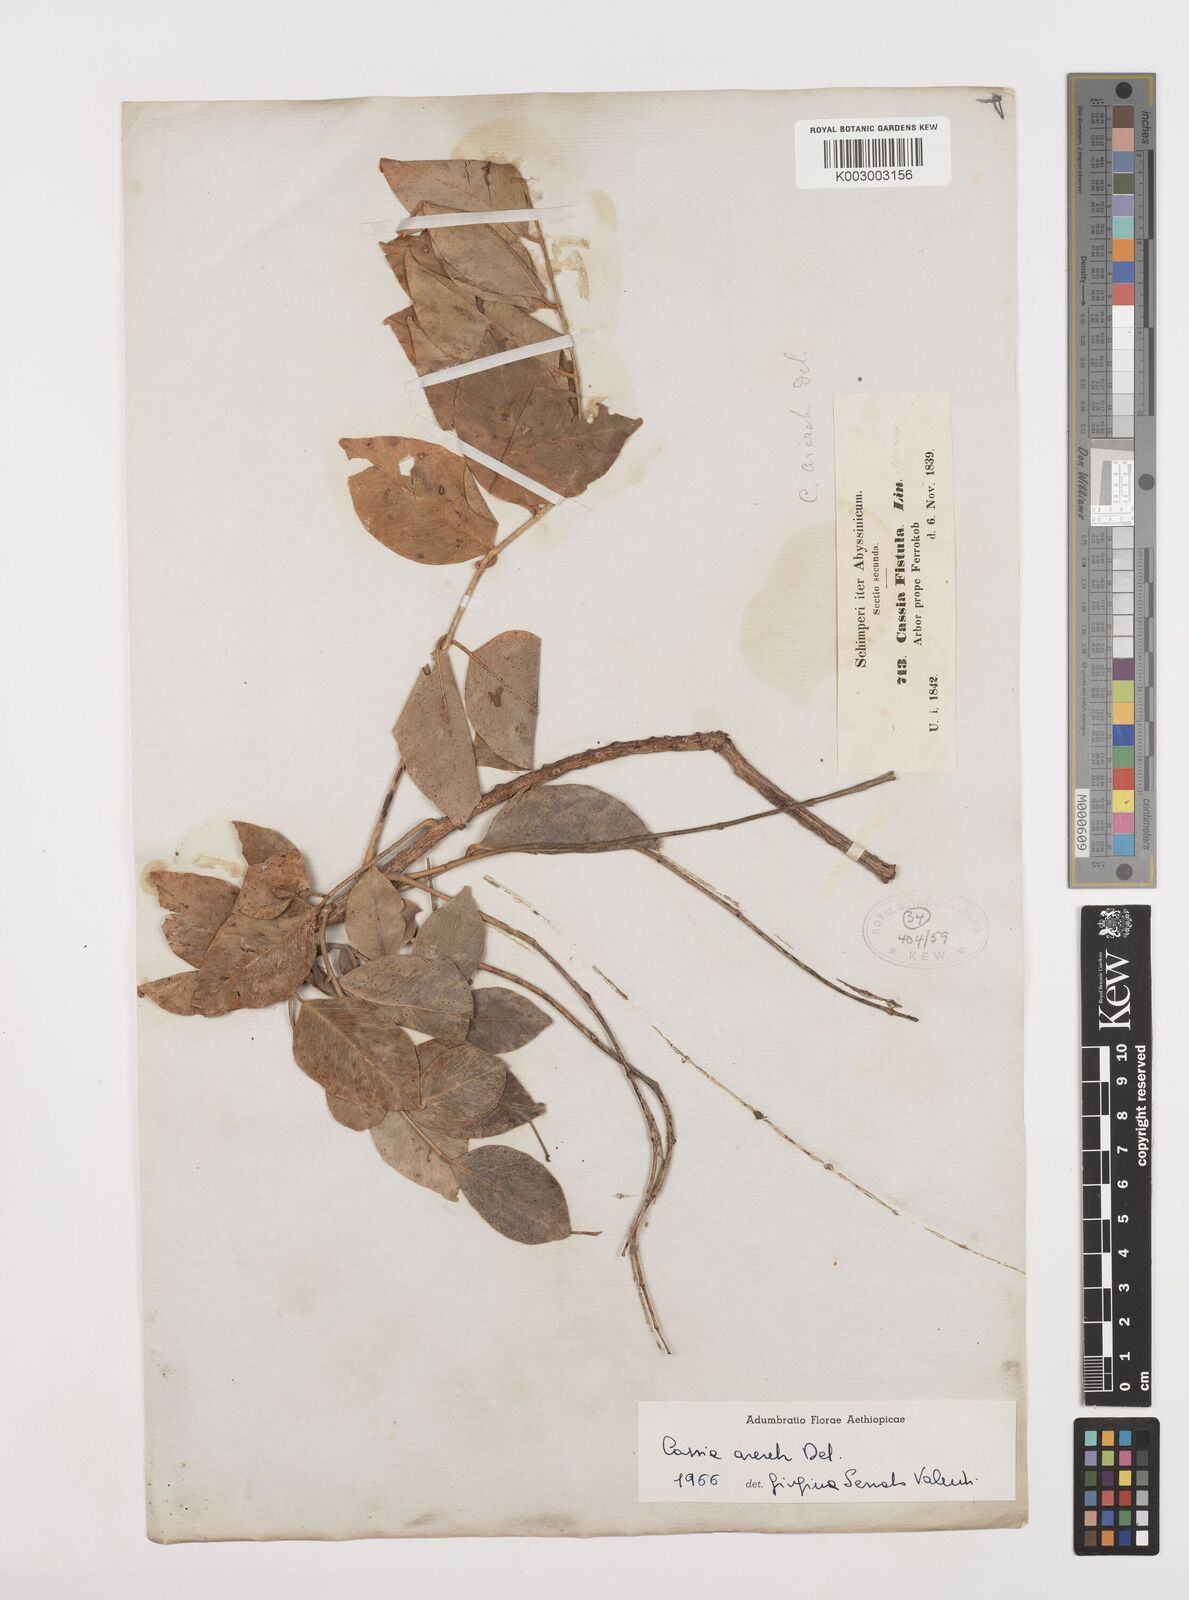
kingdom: Plantae
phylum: Tracheophyta
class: Magnoliopsida
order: Fabales
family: Fabaceae
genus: Cassia
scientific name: Cassia arereh
